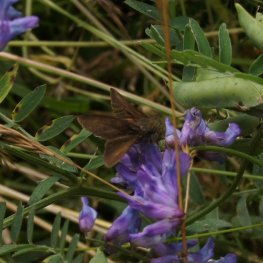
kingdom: Animalia
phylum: Arthropoda
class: Insecta
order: Lepidoptera
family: Hesperiidae
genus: Euphyes
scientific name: Euphyes vestris
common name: Dun Skipper
